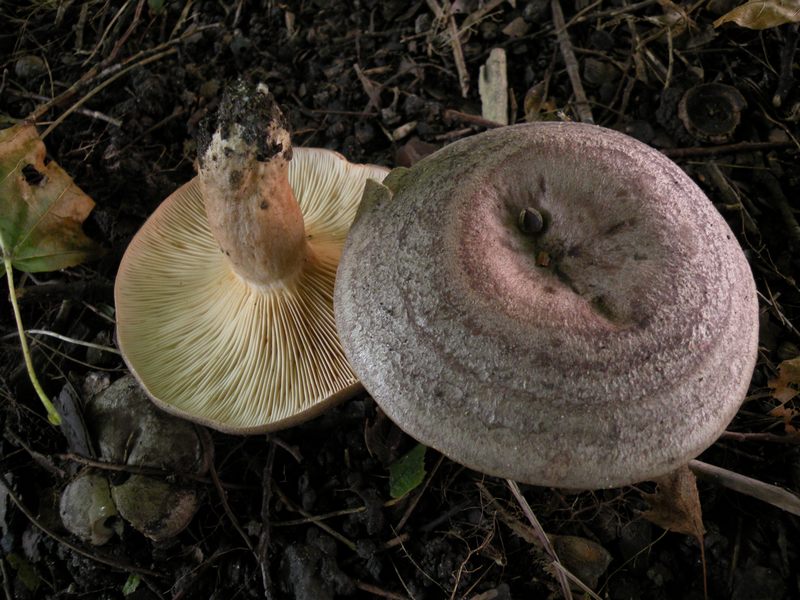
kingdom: Fungi
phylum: Basidiomycota
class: Agaricomycetes
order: Russulales
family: Russulaceae
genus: Lactarius
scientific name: Lactarius circellatus
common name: avnbøg-mælkehat
